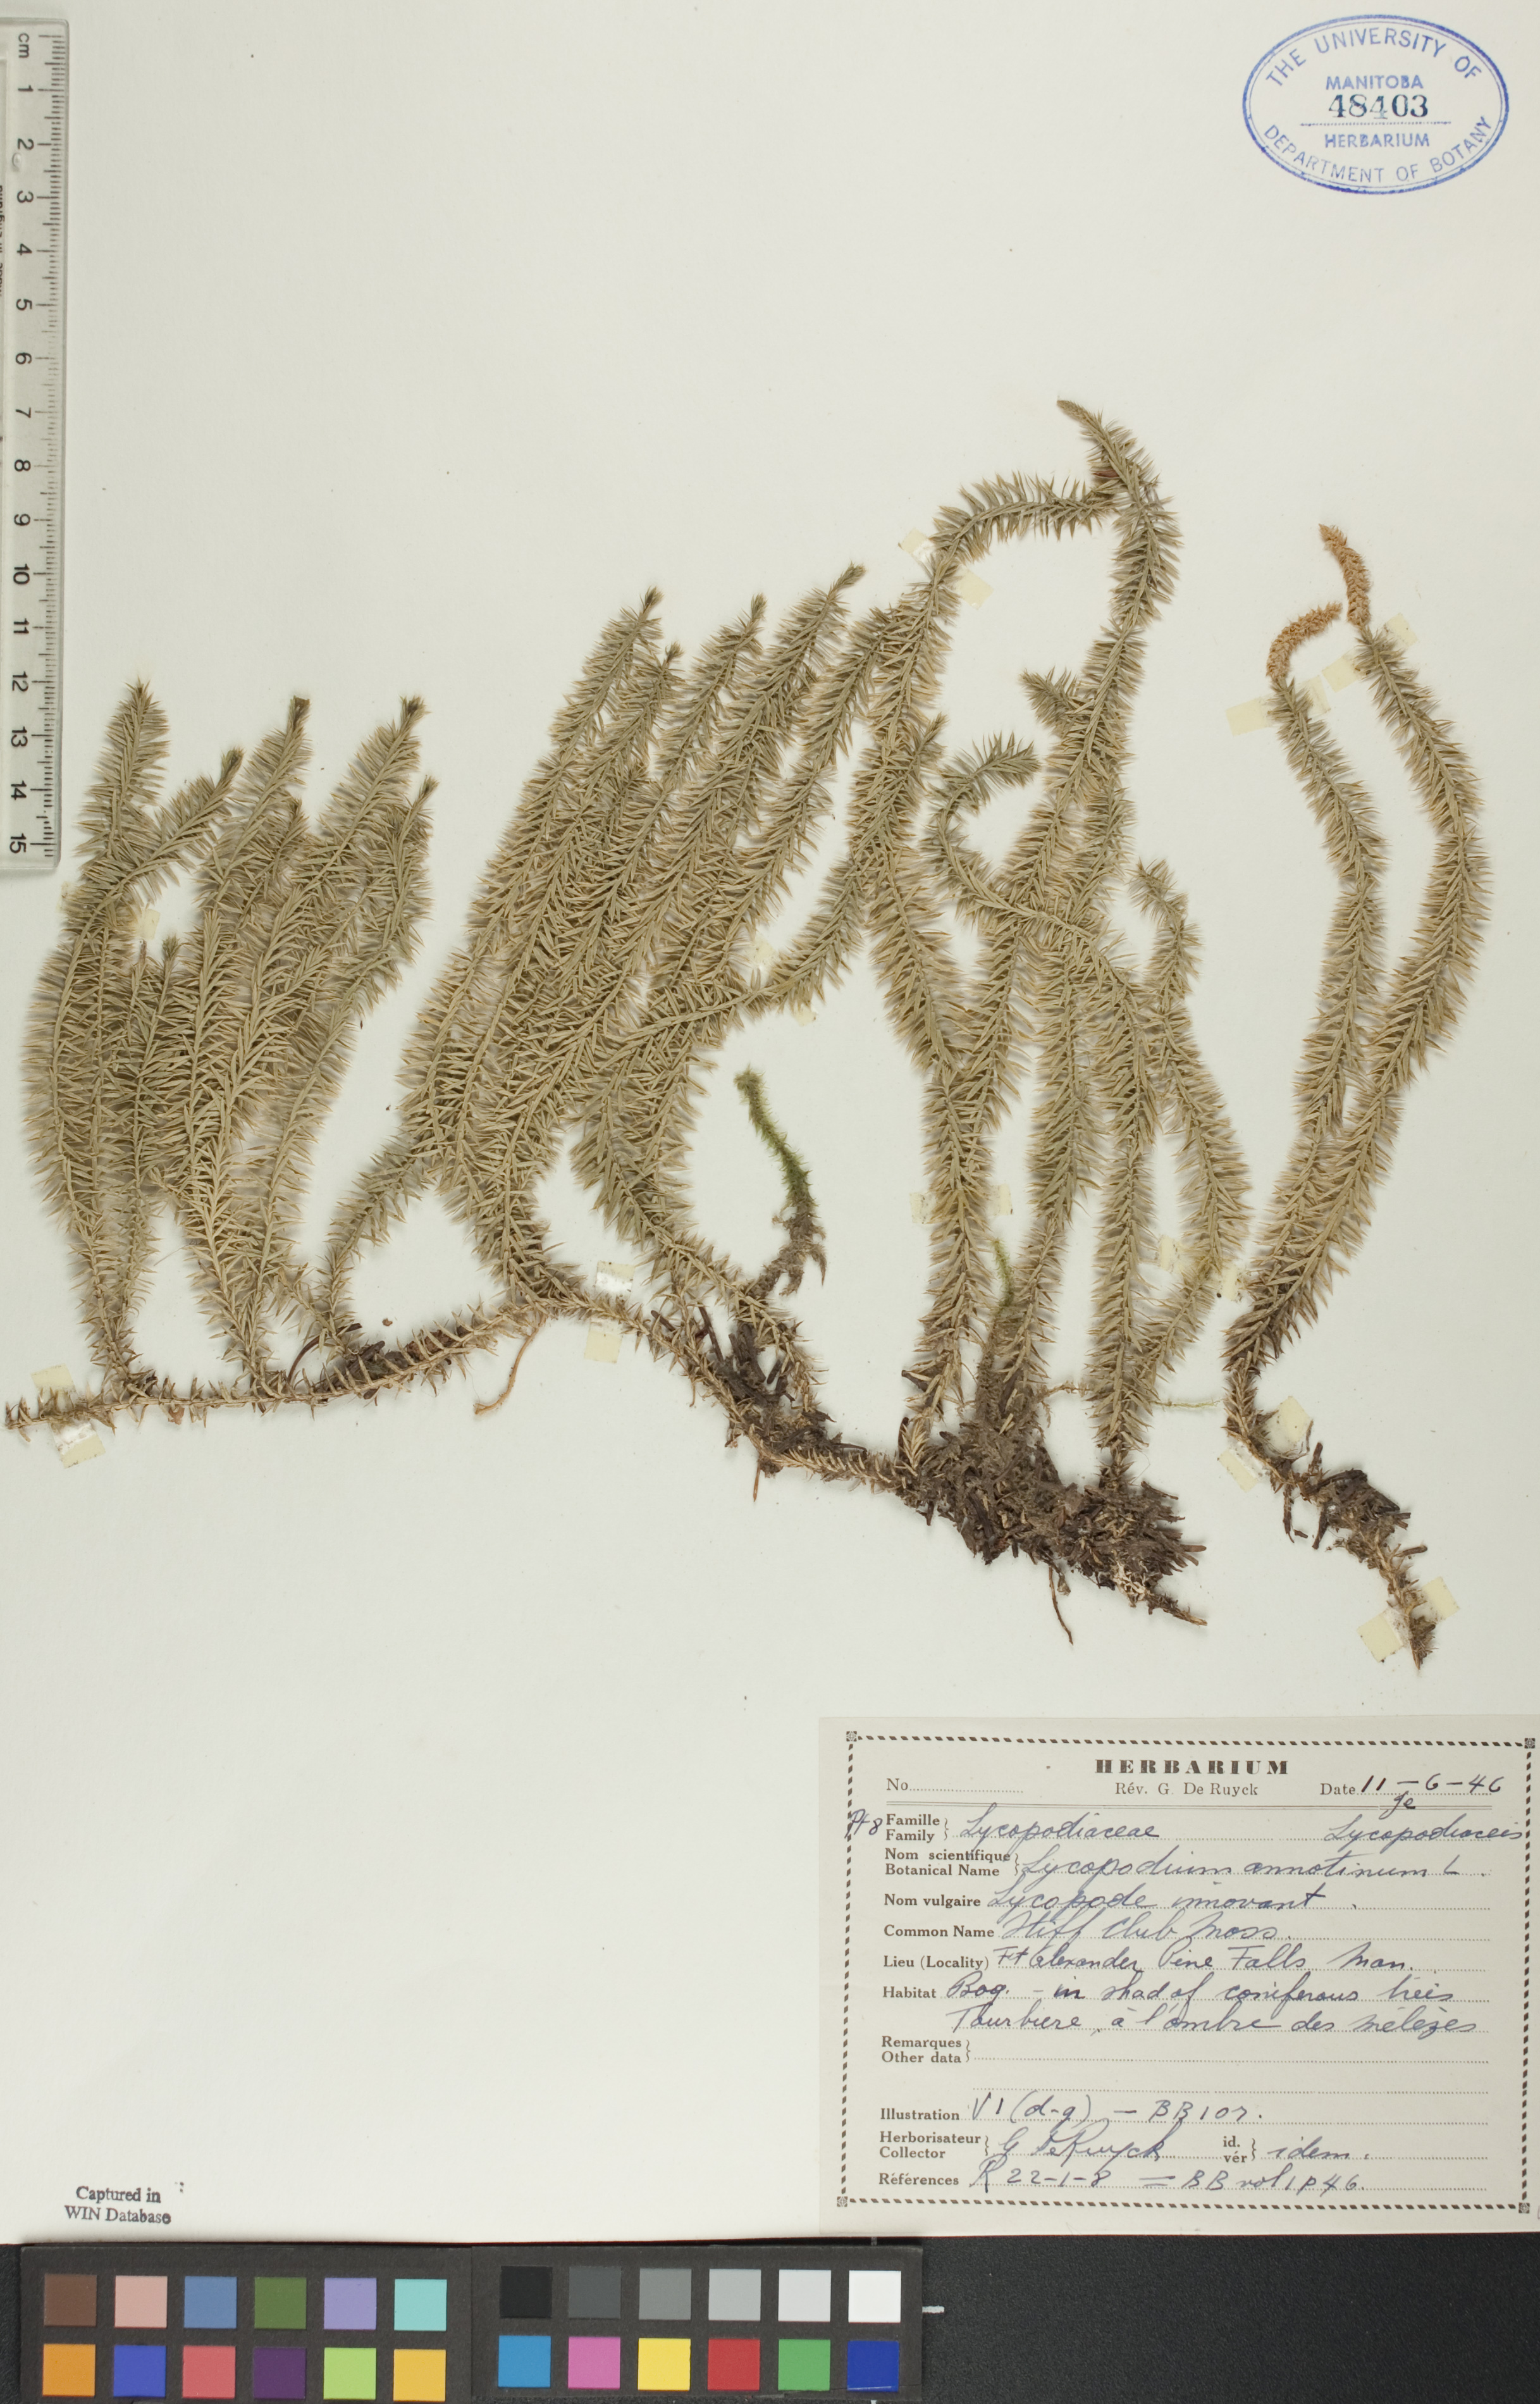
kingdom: Plantae
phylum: Tracheophyta
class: Lycopodiopsida
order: Lycopodiales
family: Lycopodiaceae
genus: Spinulum
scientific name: Spinulum annotinum
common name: Interrupted club-moss
